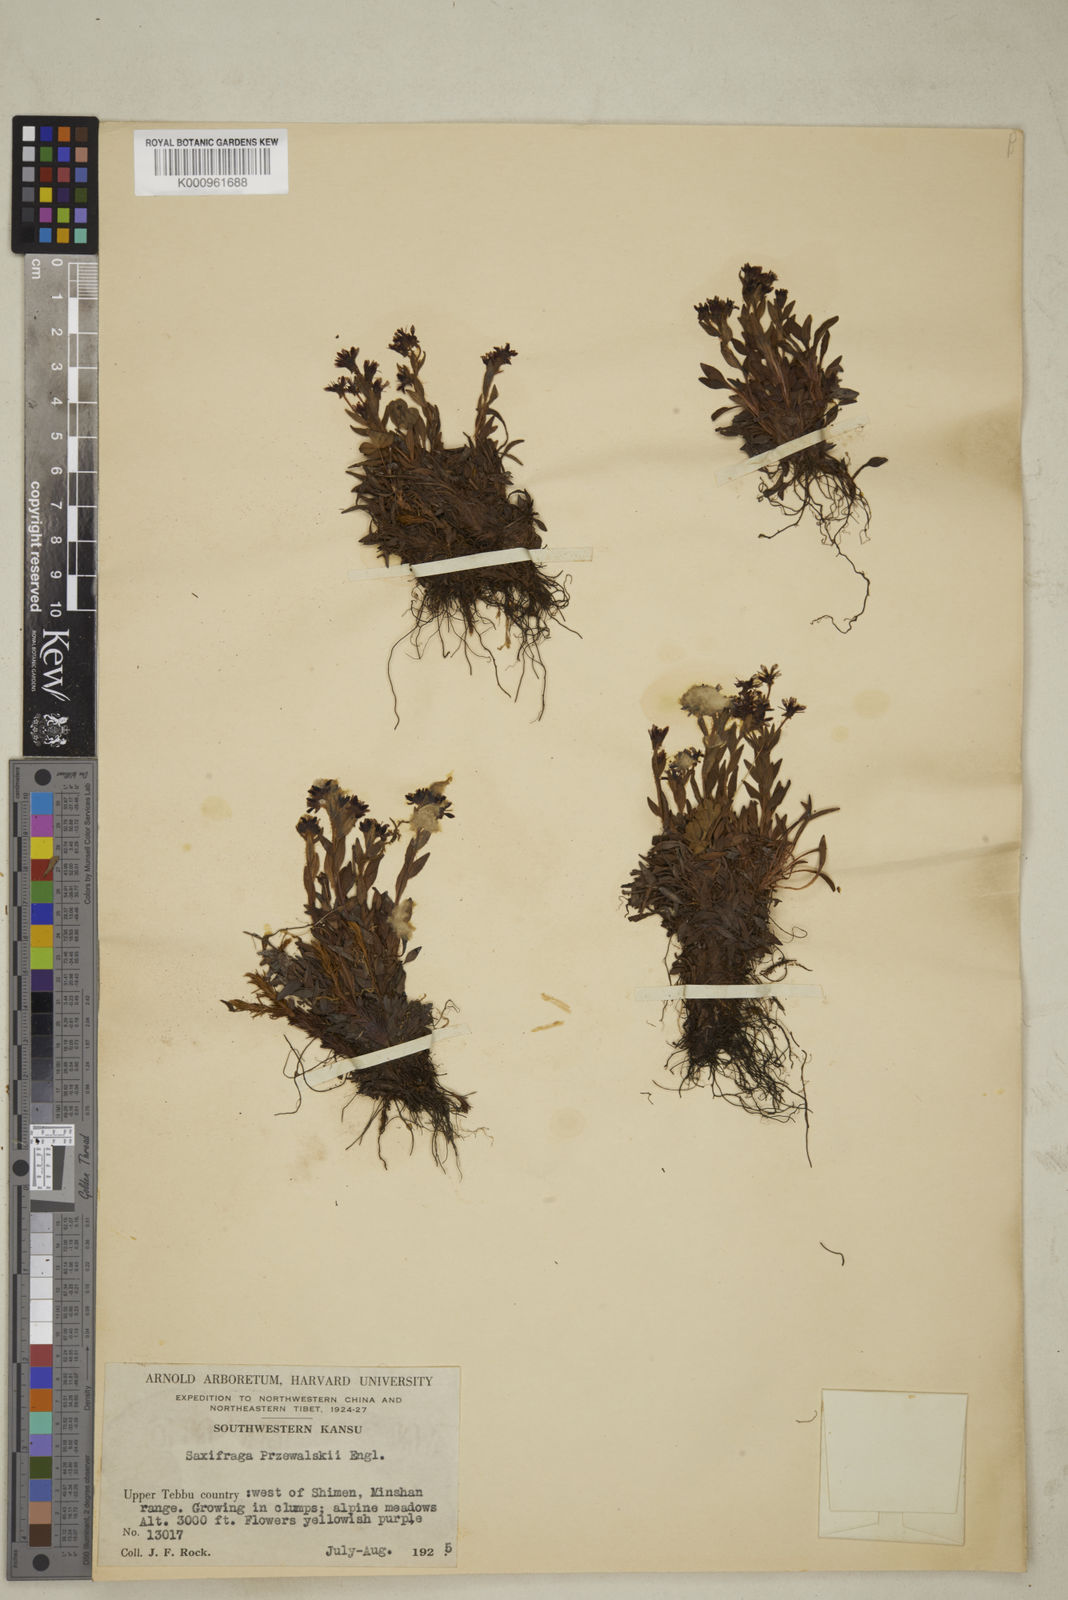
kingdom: Plantae
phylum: Tracheophyta
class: Magnoliopsida
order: Saxifragales
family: Saxifragaceae
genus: Saxifraga
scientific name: Saxifraga
